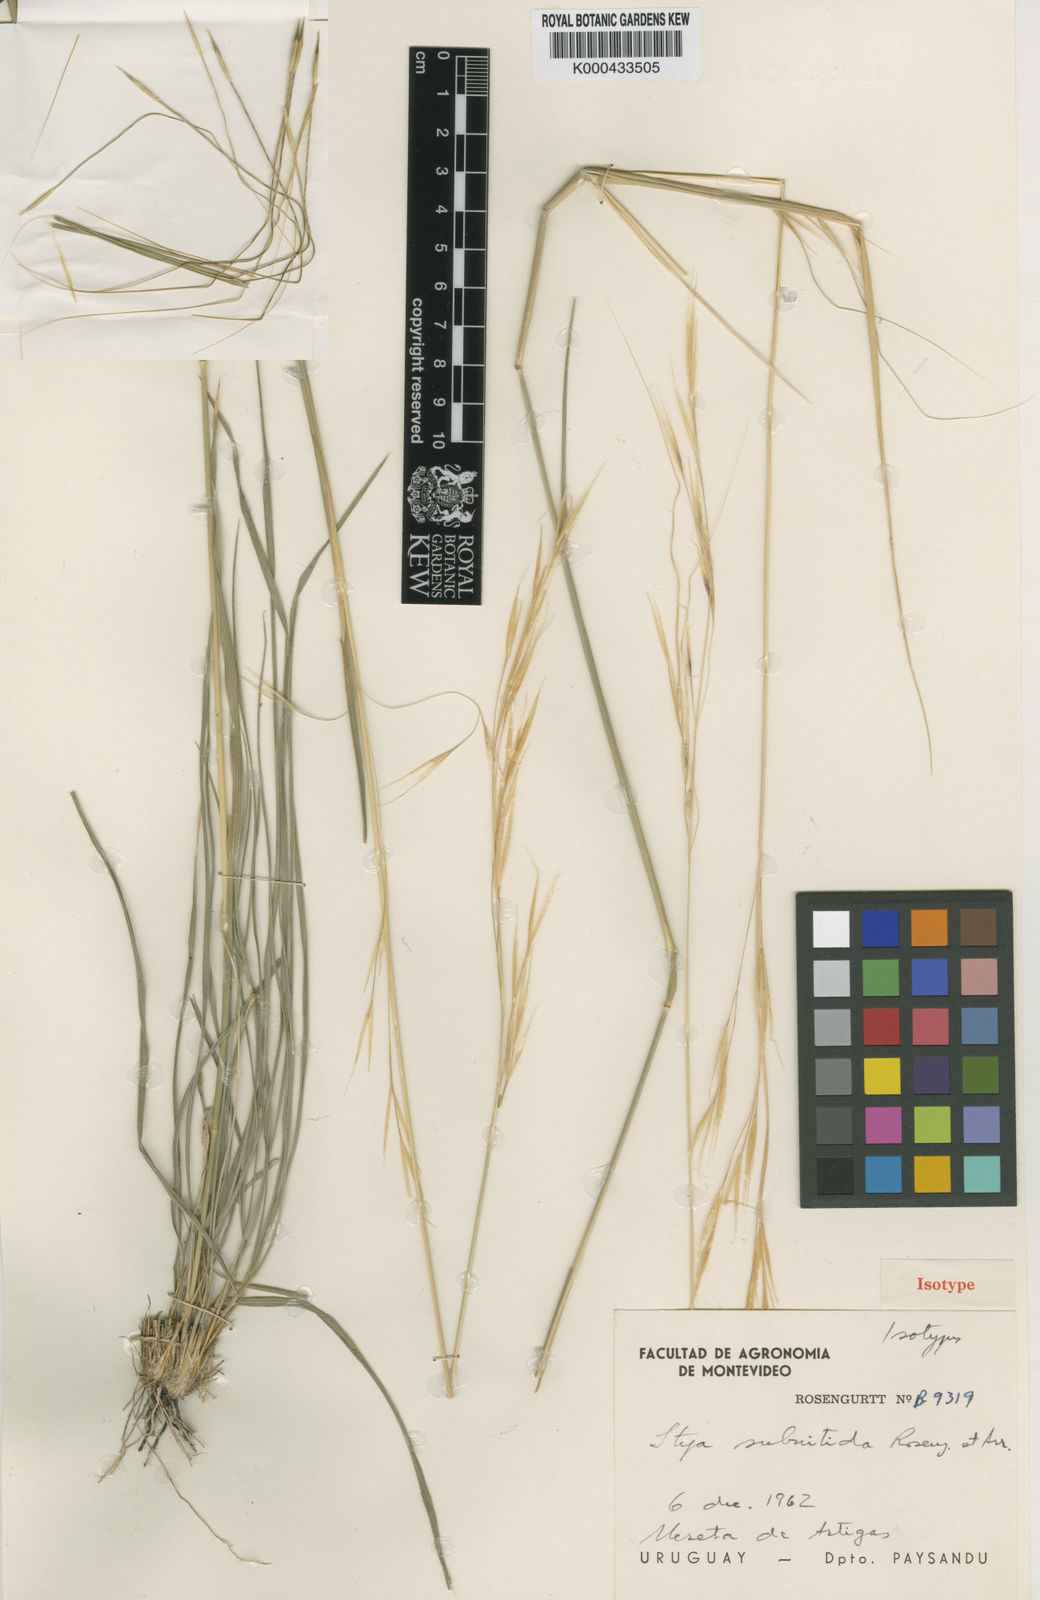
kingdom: Plantae
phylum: Tracheophyta
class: Liliopsida
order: Poales
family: Poaceae
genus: Nassella
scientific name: Nassella subnitida
